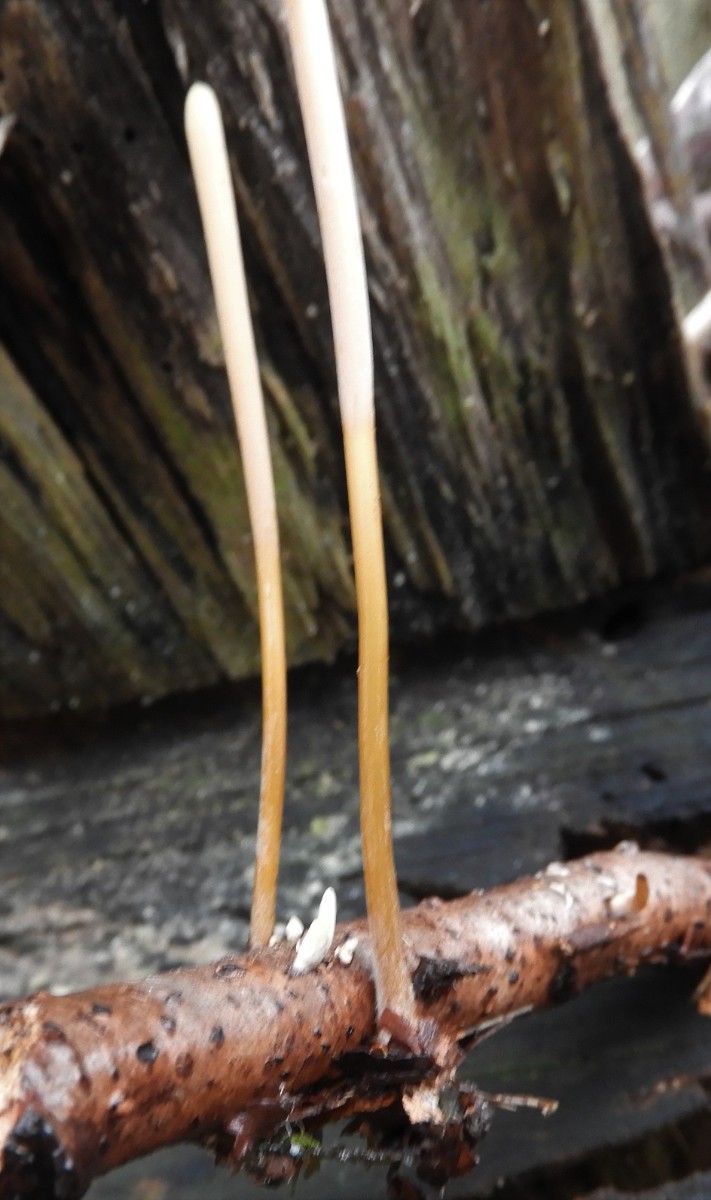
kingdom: Fungi
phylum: Basidiomycota
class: Agaricomycetes
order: Agaricales
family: Typhulaceae
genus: Typhula
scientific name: Typhula fistulosa
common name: pibet rørkølle
